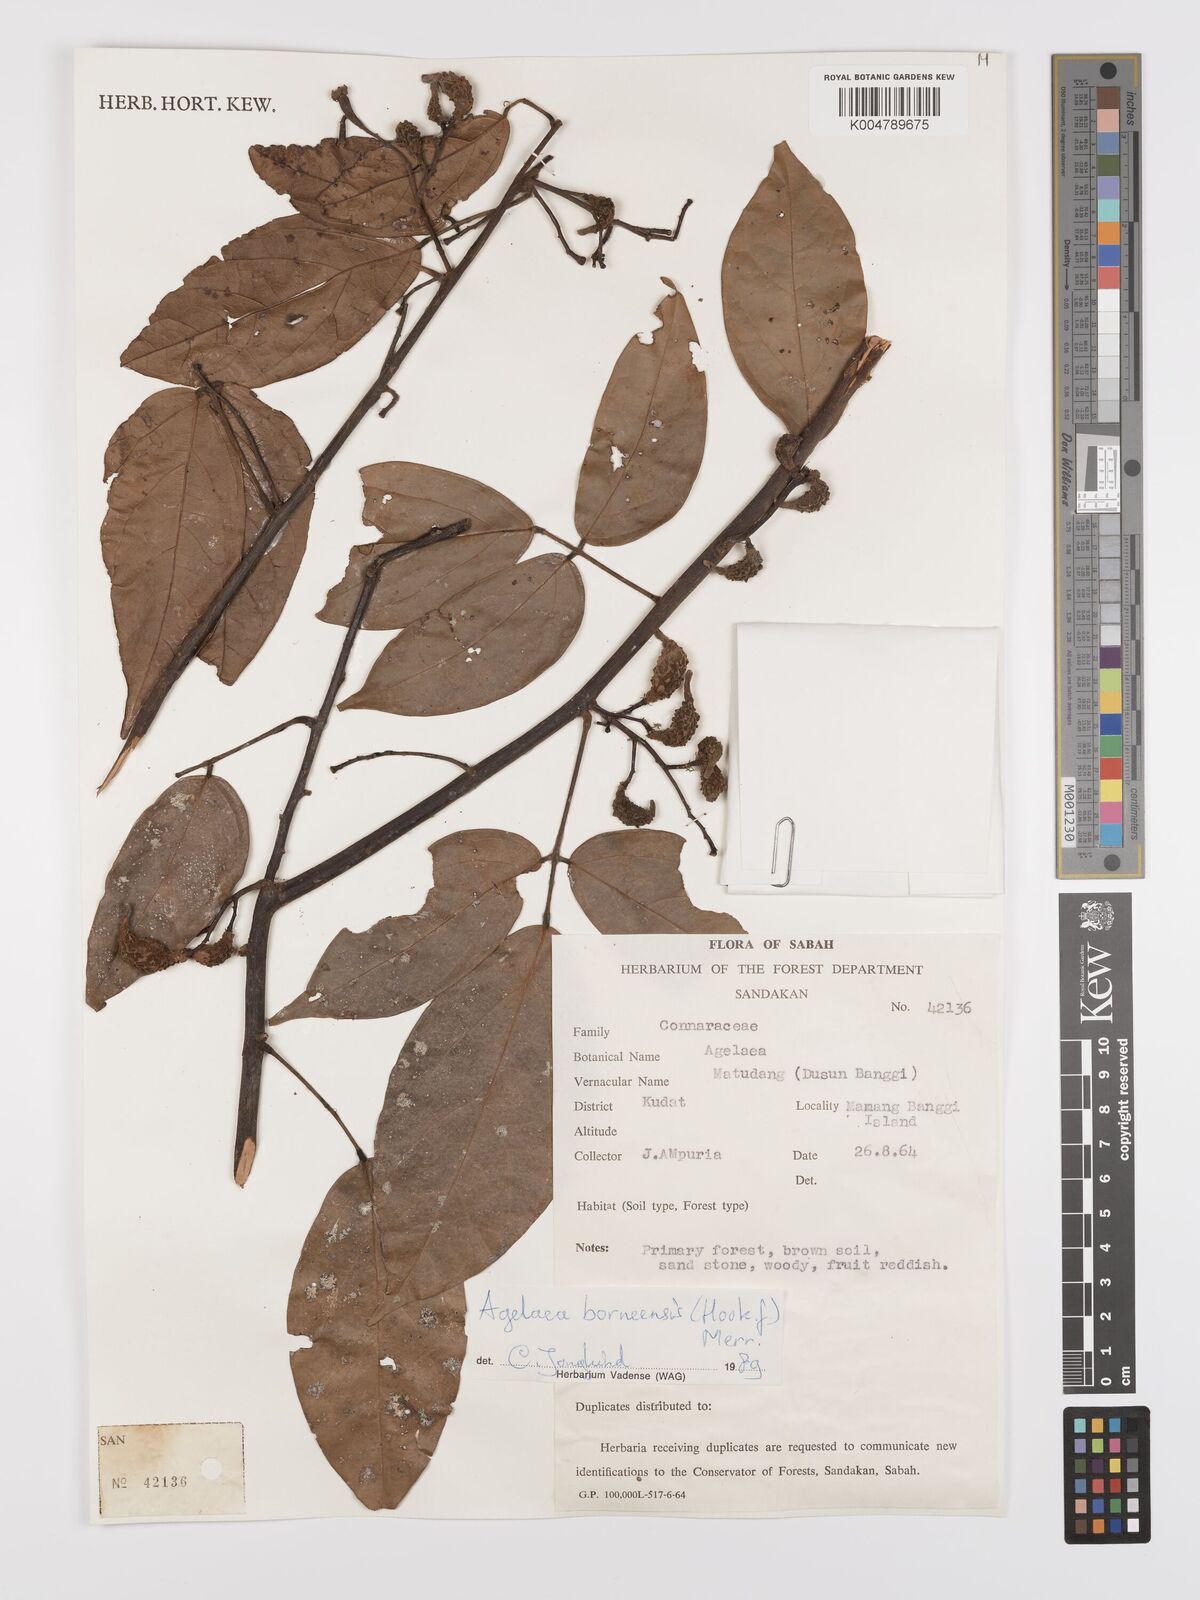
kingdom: Plantae
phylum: Tracheophyta
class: Magnoliopsida
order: Oxalidales
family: Connaraceae
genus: Agelaea
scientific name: Agelaea borneensis
